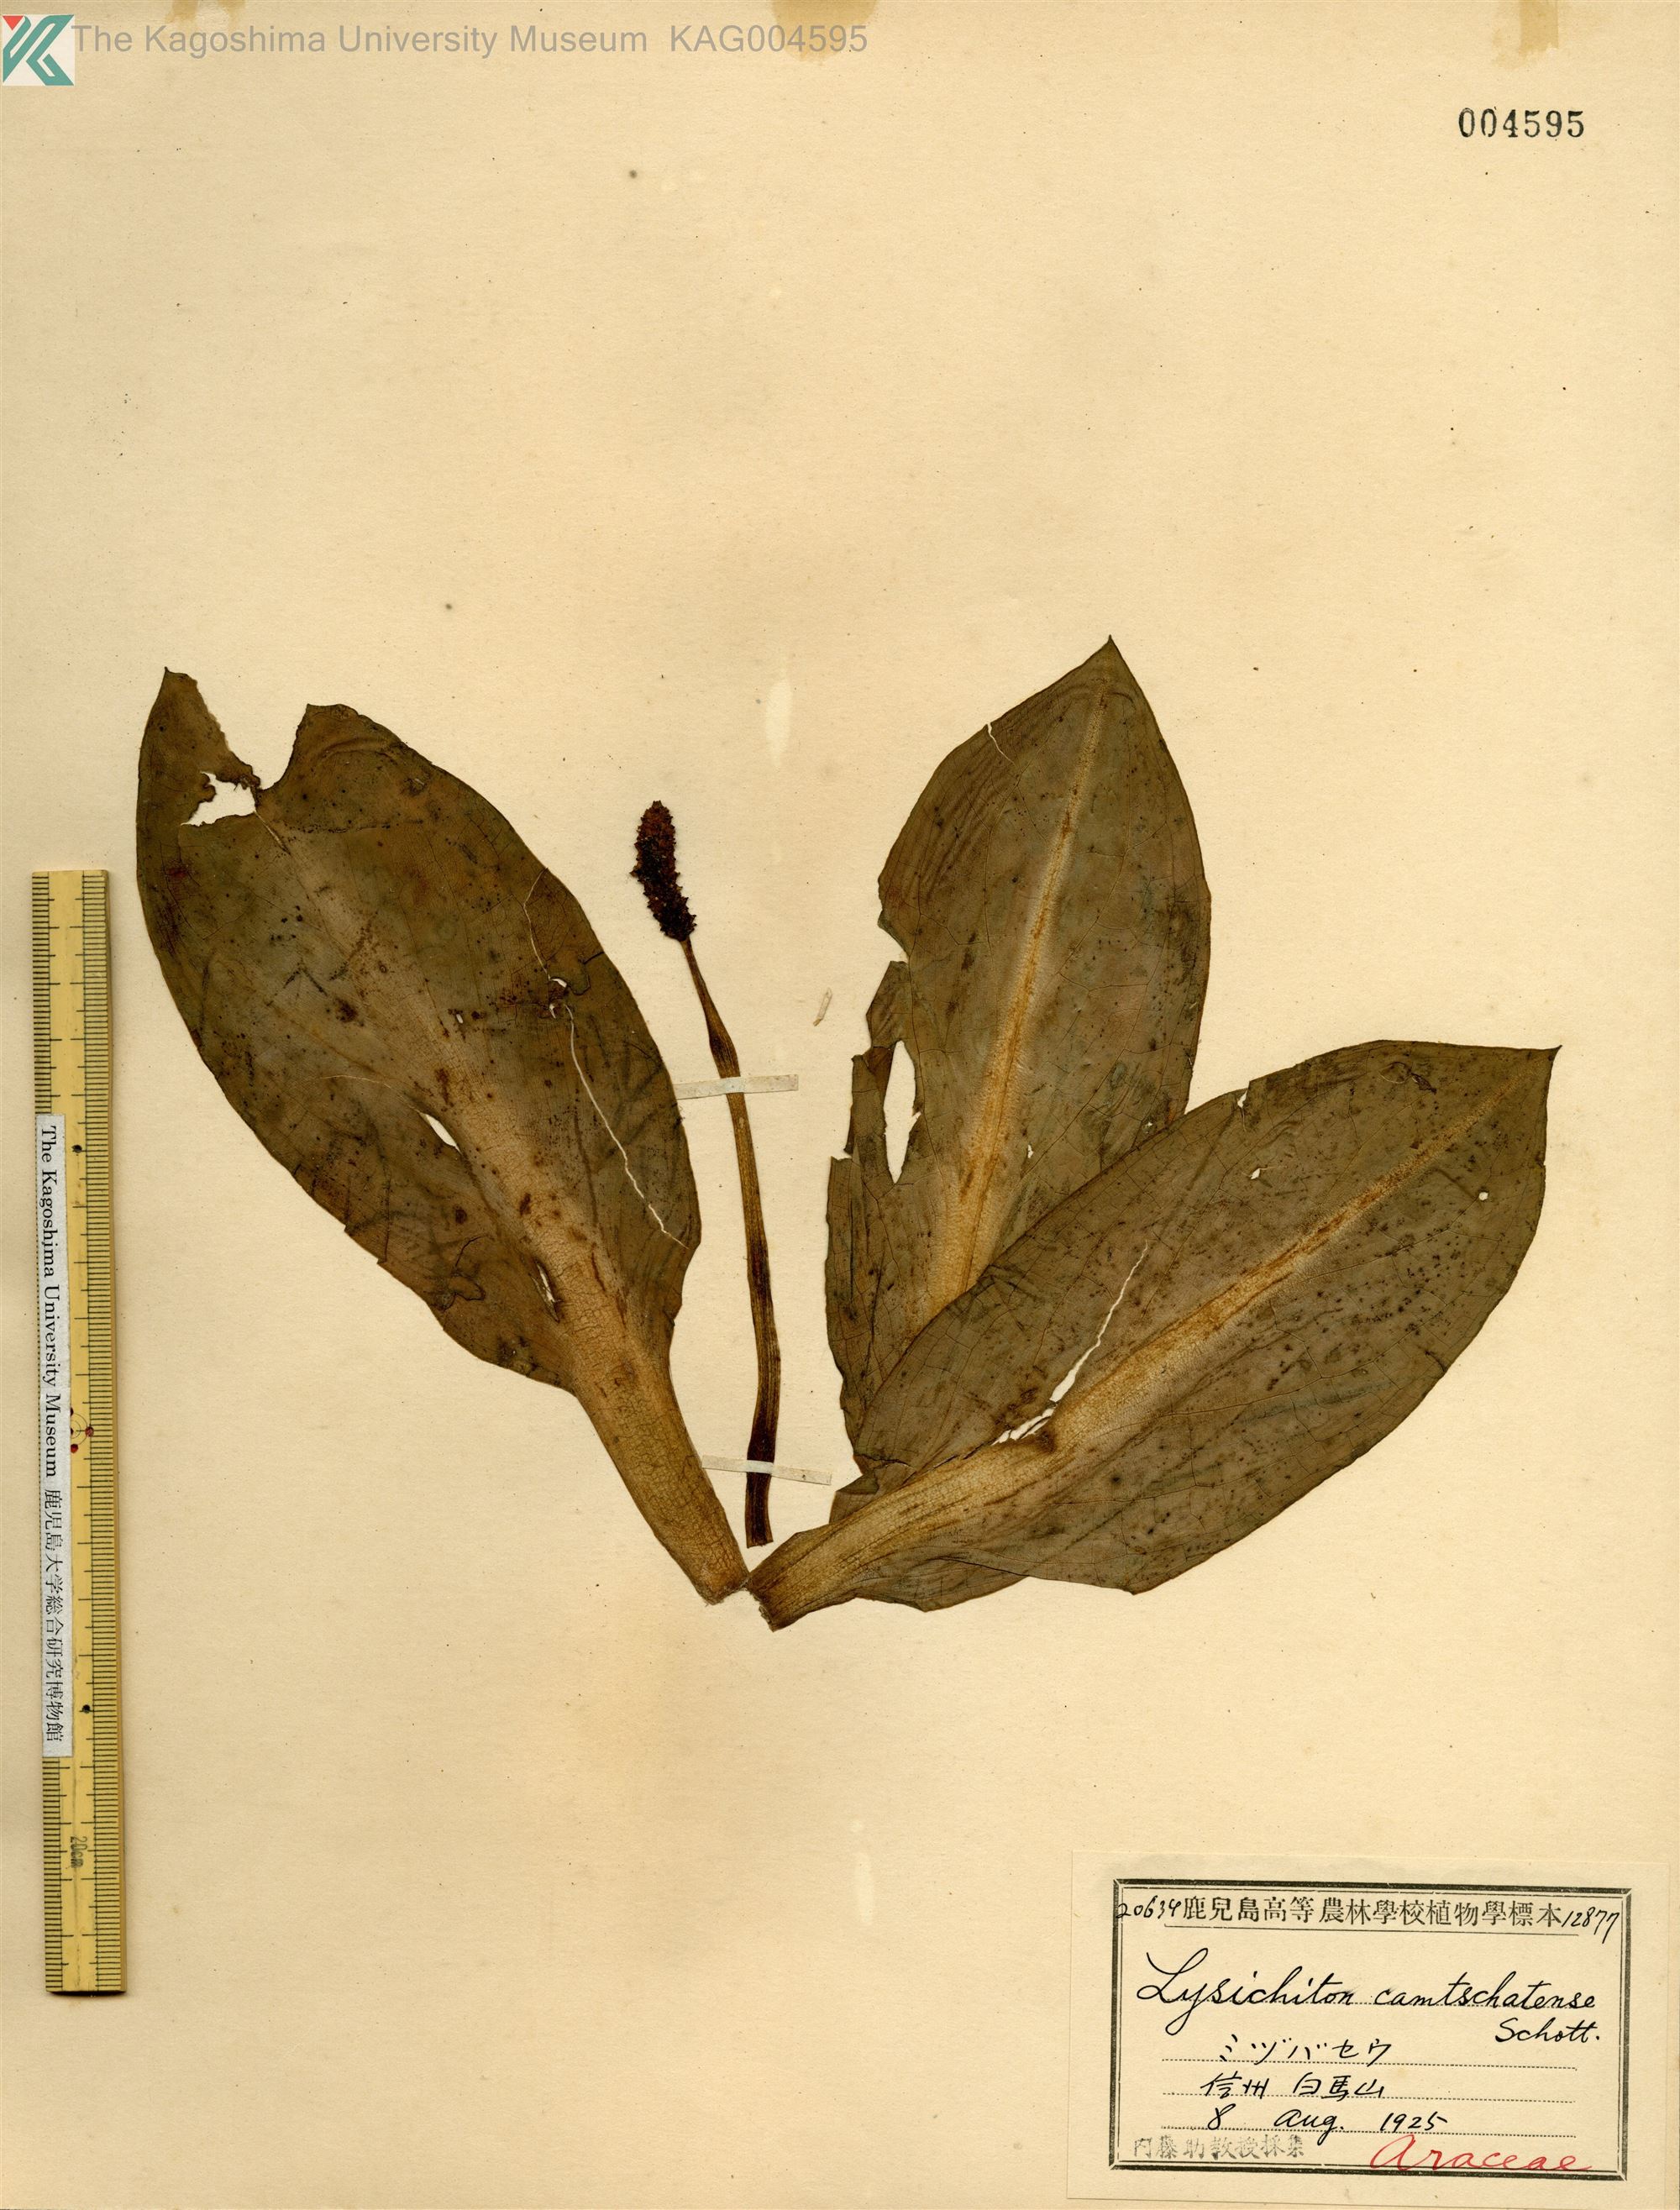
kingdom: Plantae
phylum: Tracheophyta
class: Liliopsida
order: Alismatales
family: Araceae
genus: Lysichiton
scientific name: Lysichiton camtschatcensis
